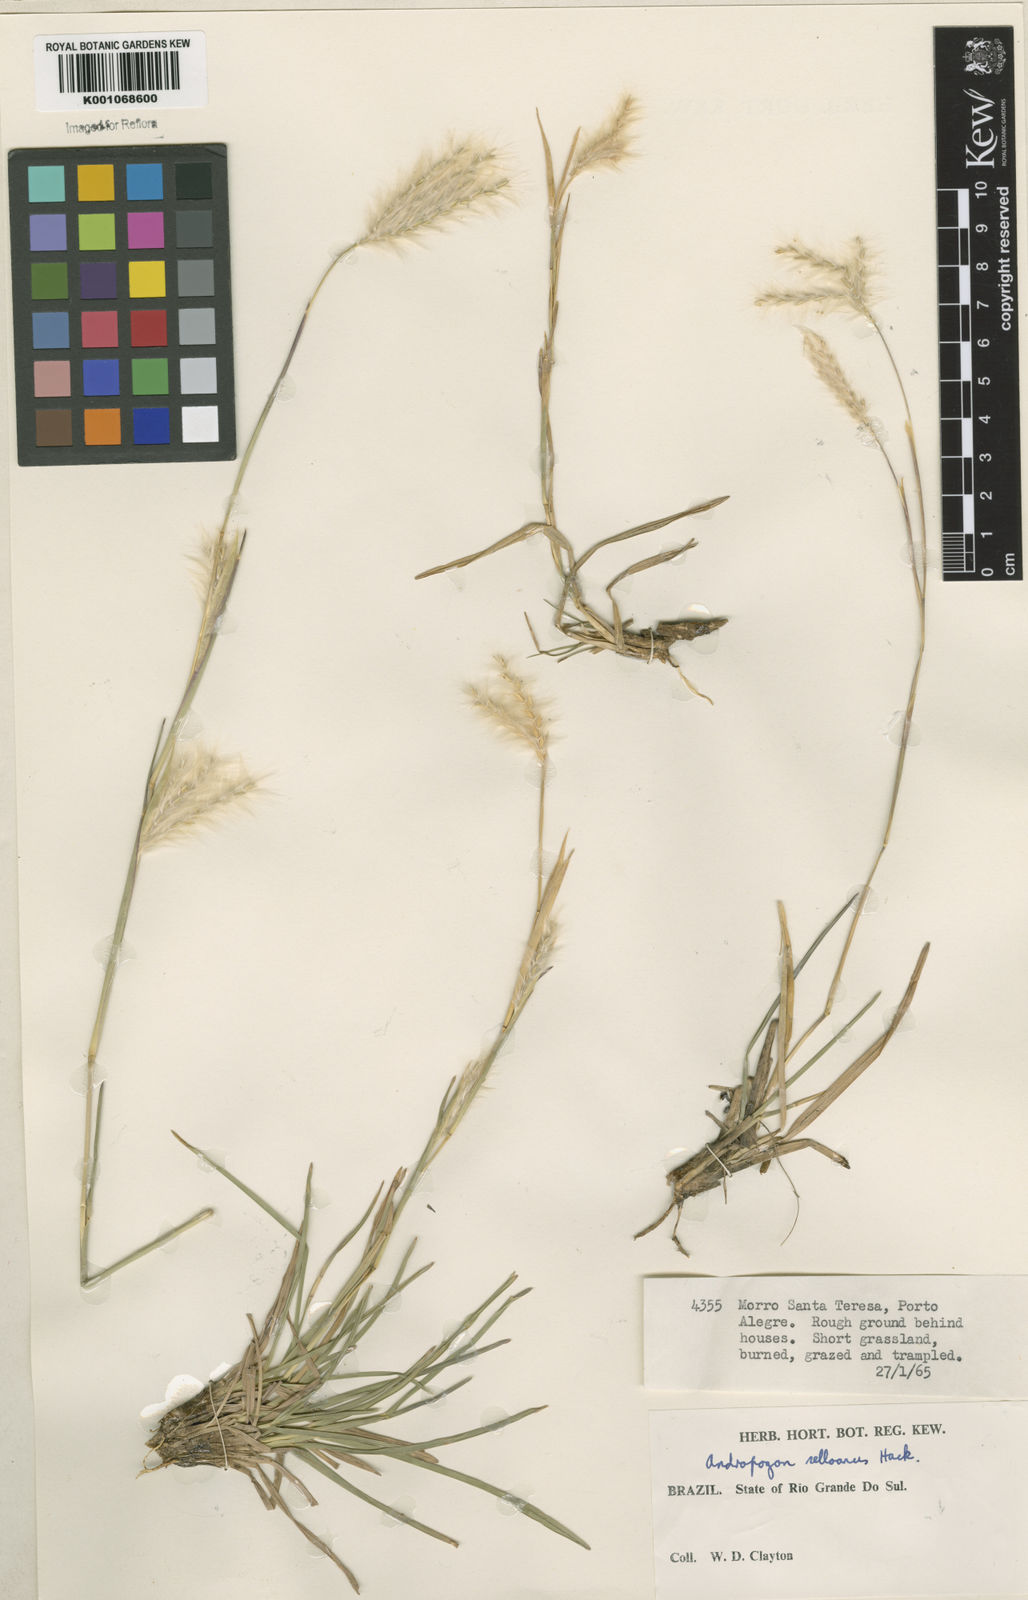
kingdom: Plantae
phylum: Tracheophyta
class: Liliopsida
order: Poales
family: Poaceae
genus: Andropogon
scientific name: Andropogon selloanus
